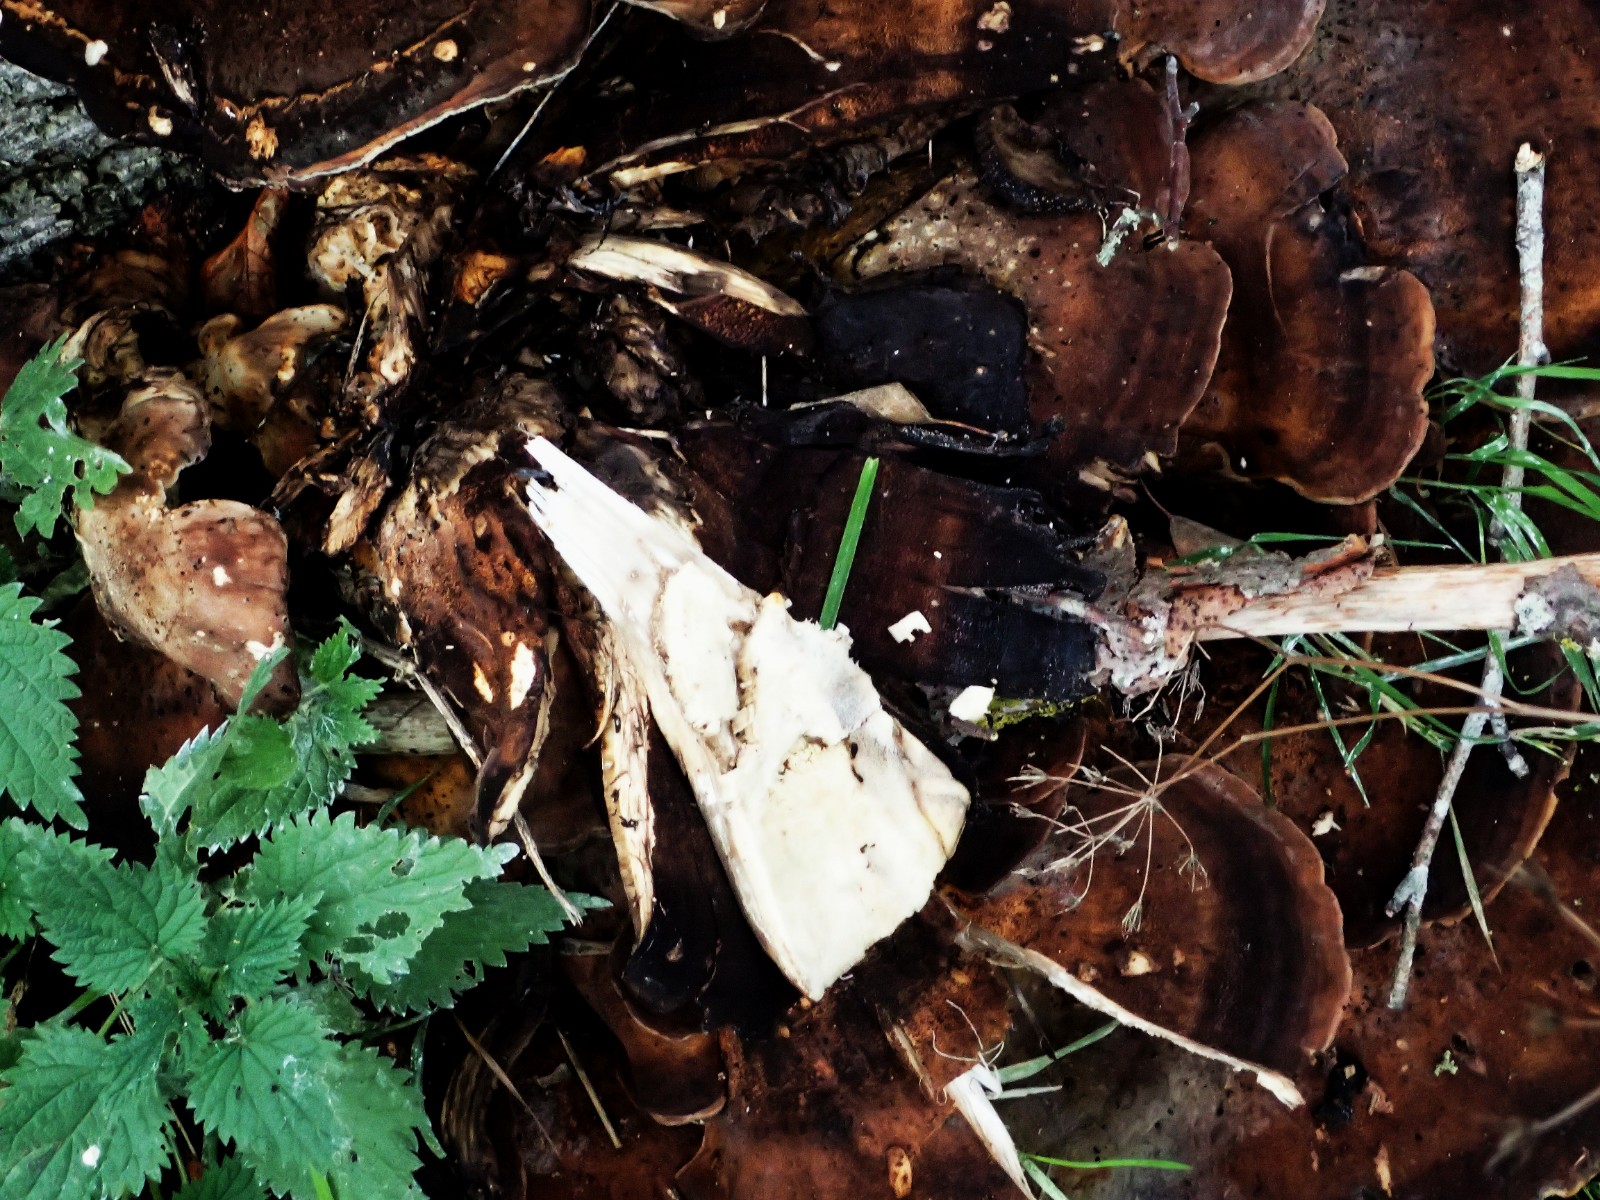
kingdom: Fungi
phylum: Basidiomycota
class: Agaricomycetes
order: Polyporales
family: Meripilaceae
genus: Meripilus
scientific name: Meripilus giganteus
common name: kæmpeporesvamp
